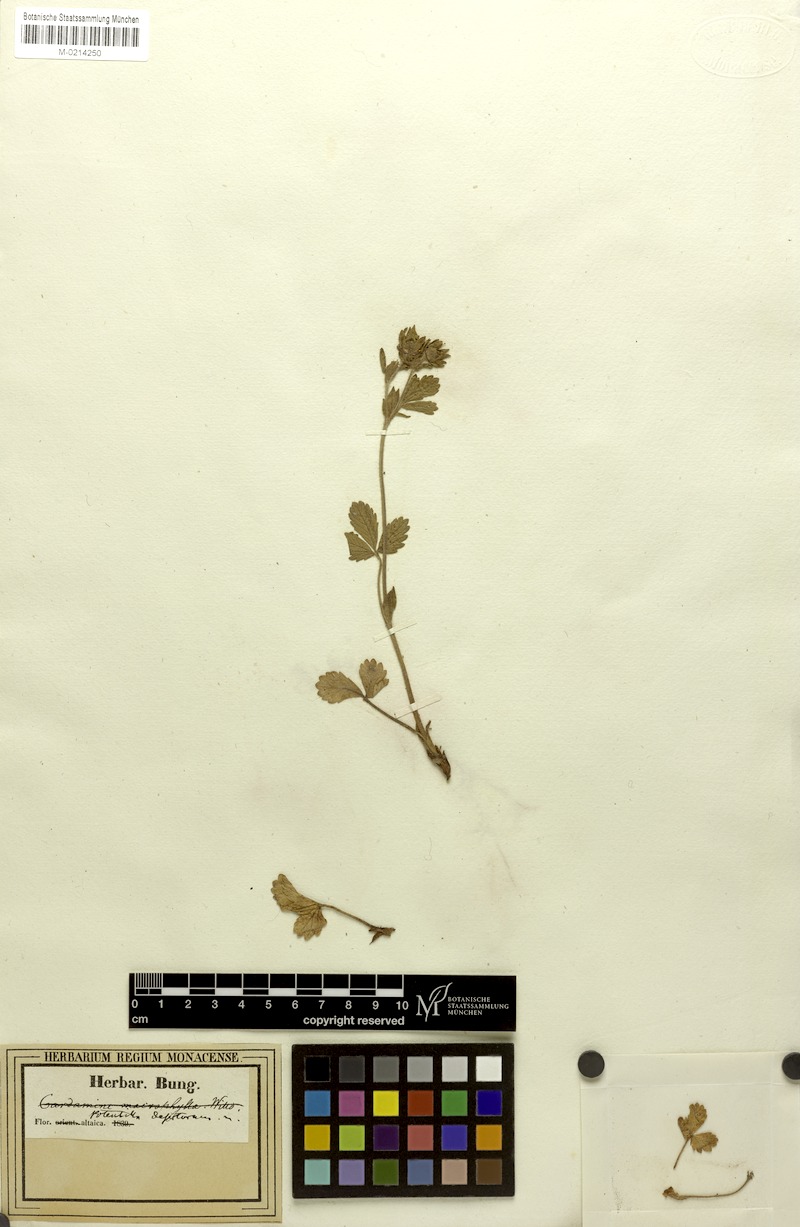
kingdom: Plantae
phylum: Tracheophyta
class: Magnoliopsida
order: Rosales
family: Rosaceae
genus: Potentilla
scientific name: Potentilla desertorum
